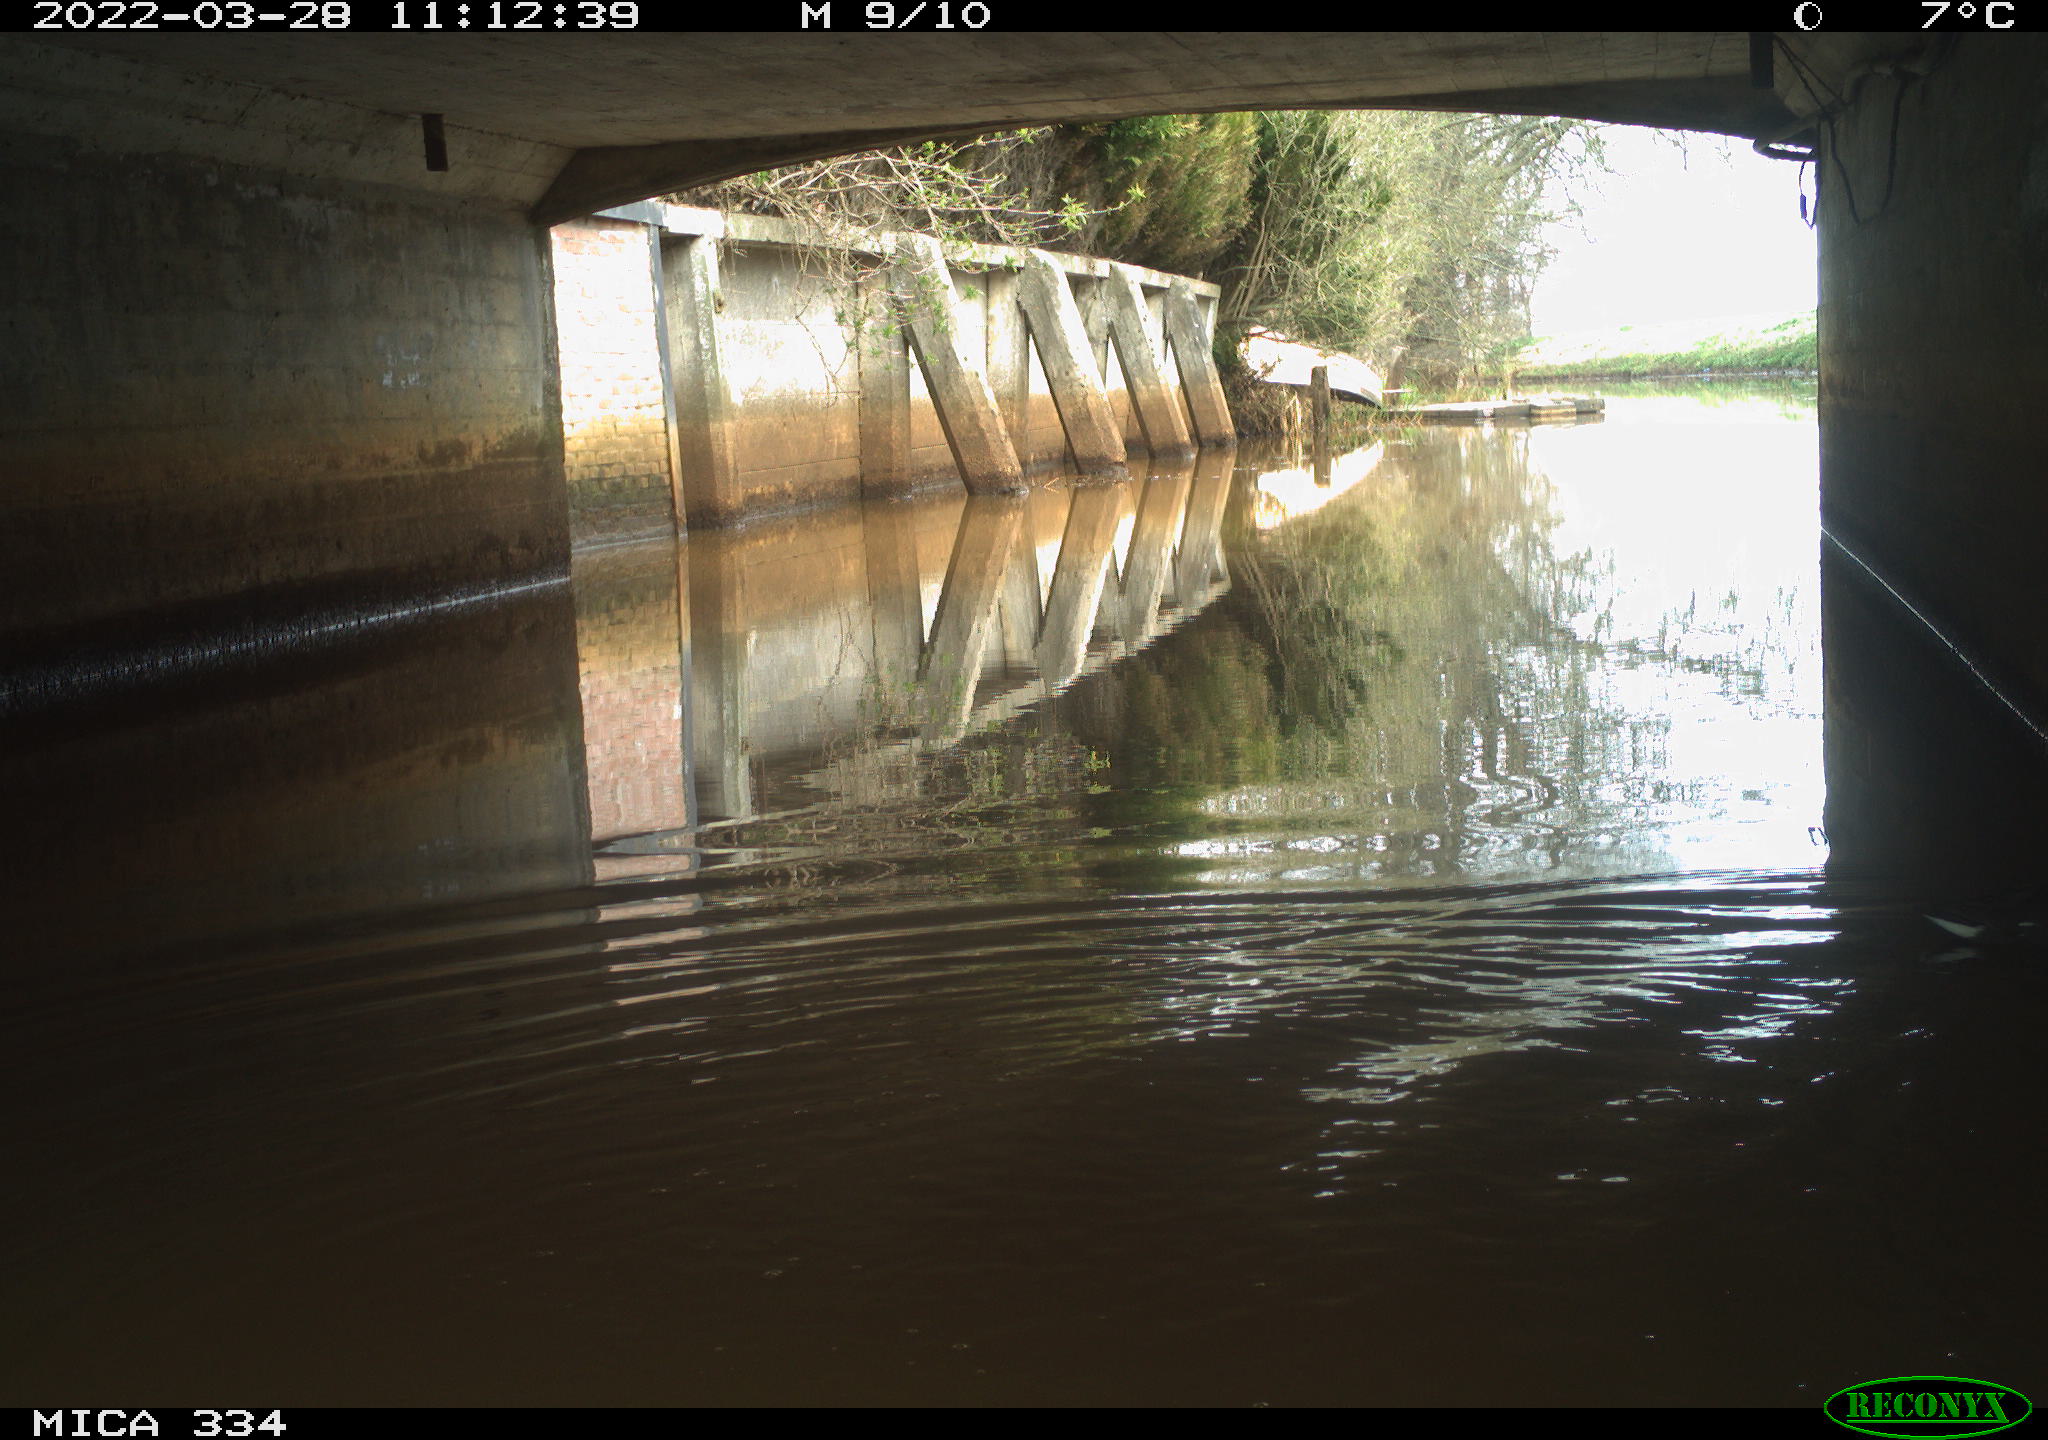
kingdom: Animalia
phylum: Chordata
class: Aves
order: Gruiformes
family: Rallidae
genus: Gallinula
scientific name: Gallinula chloropus
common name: Common moorhen
